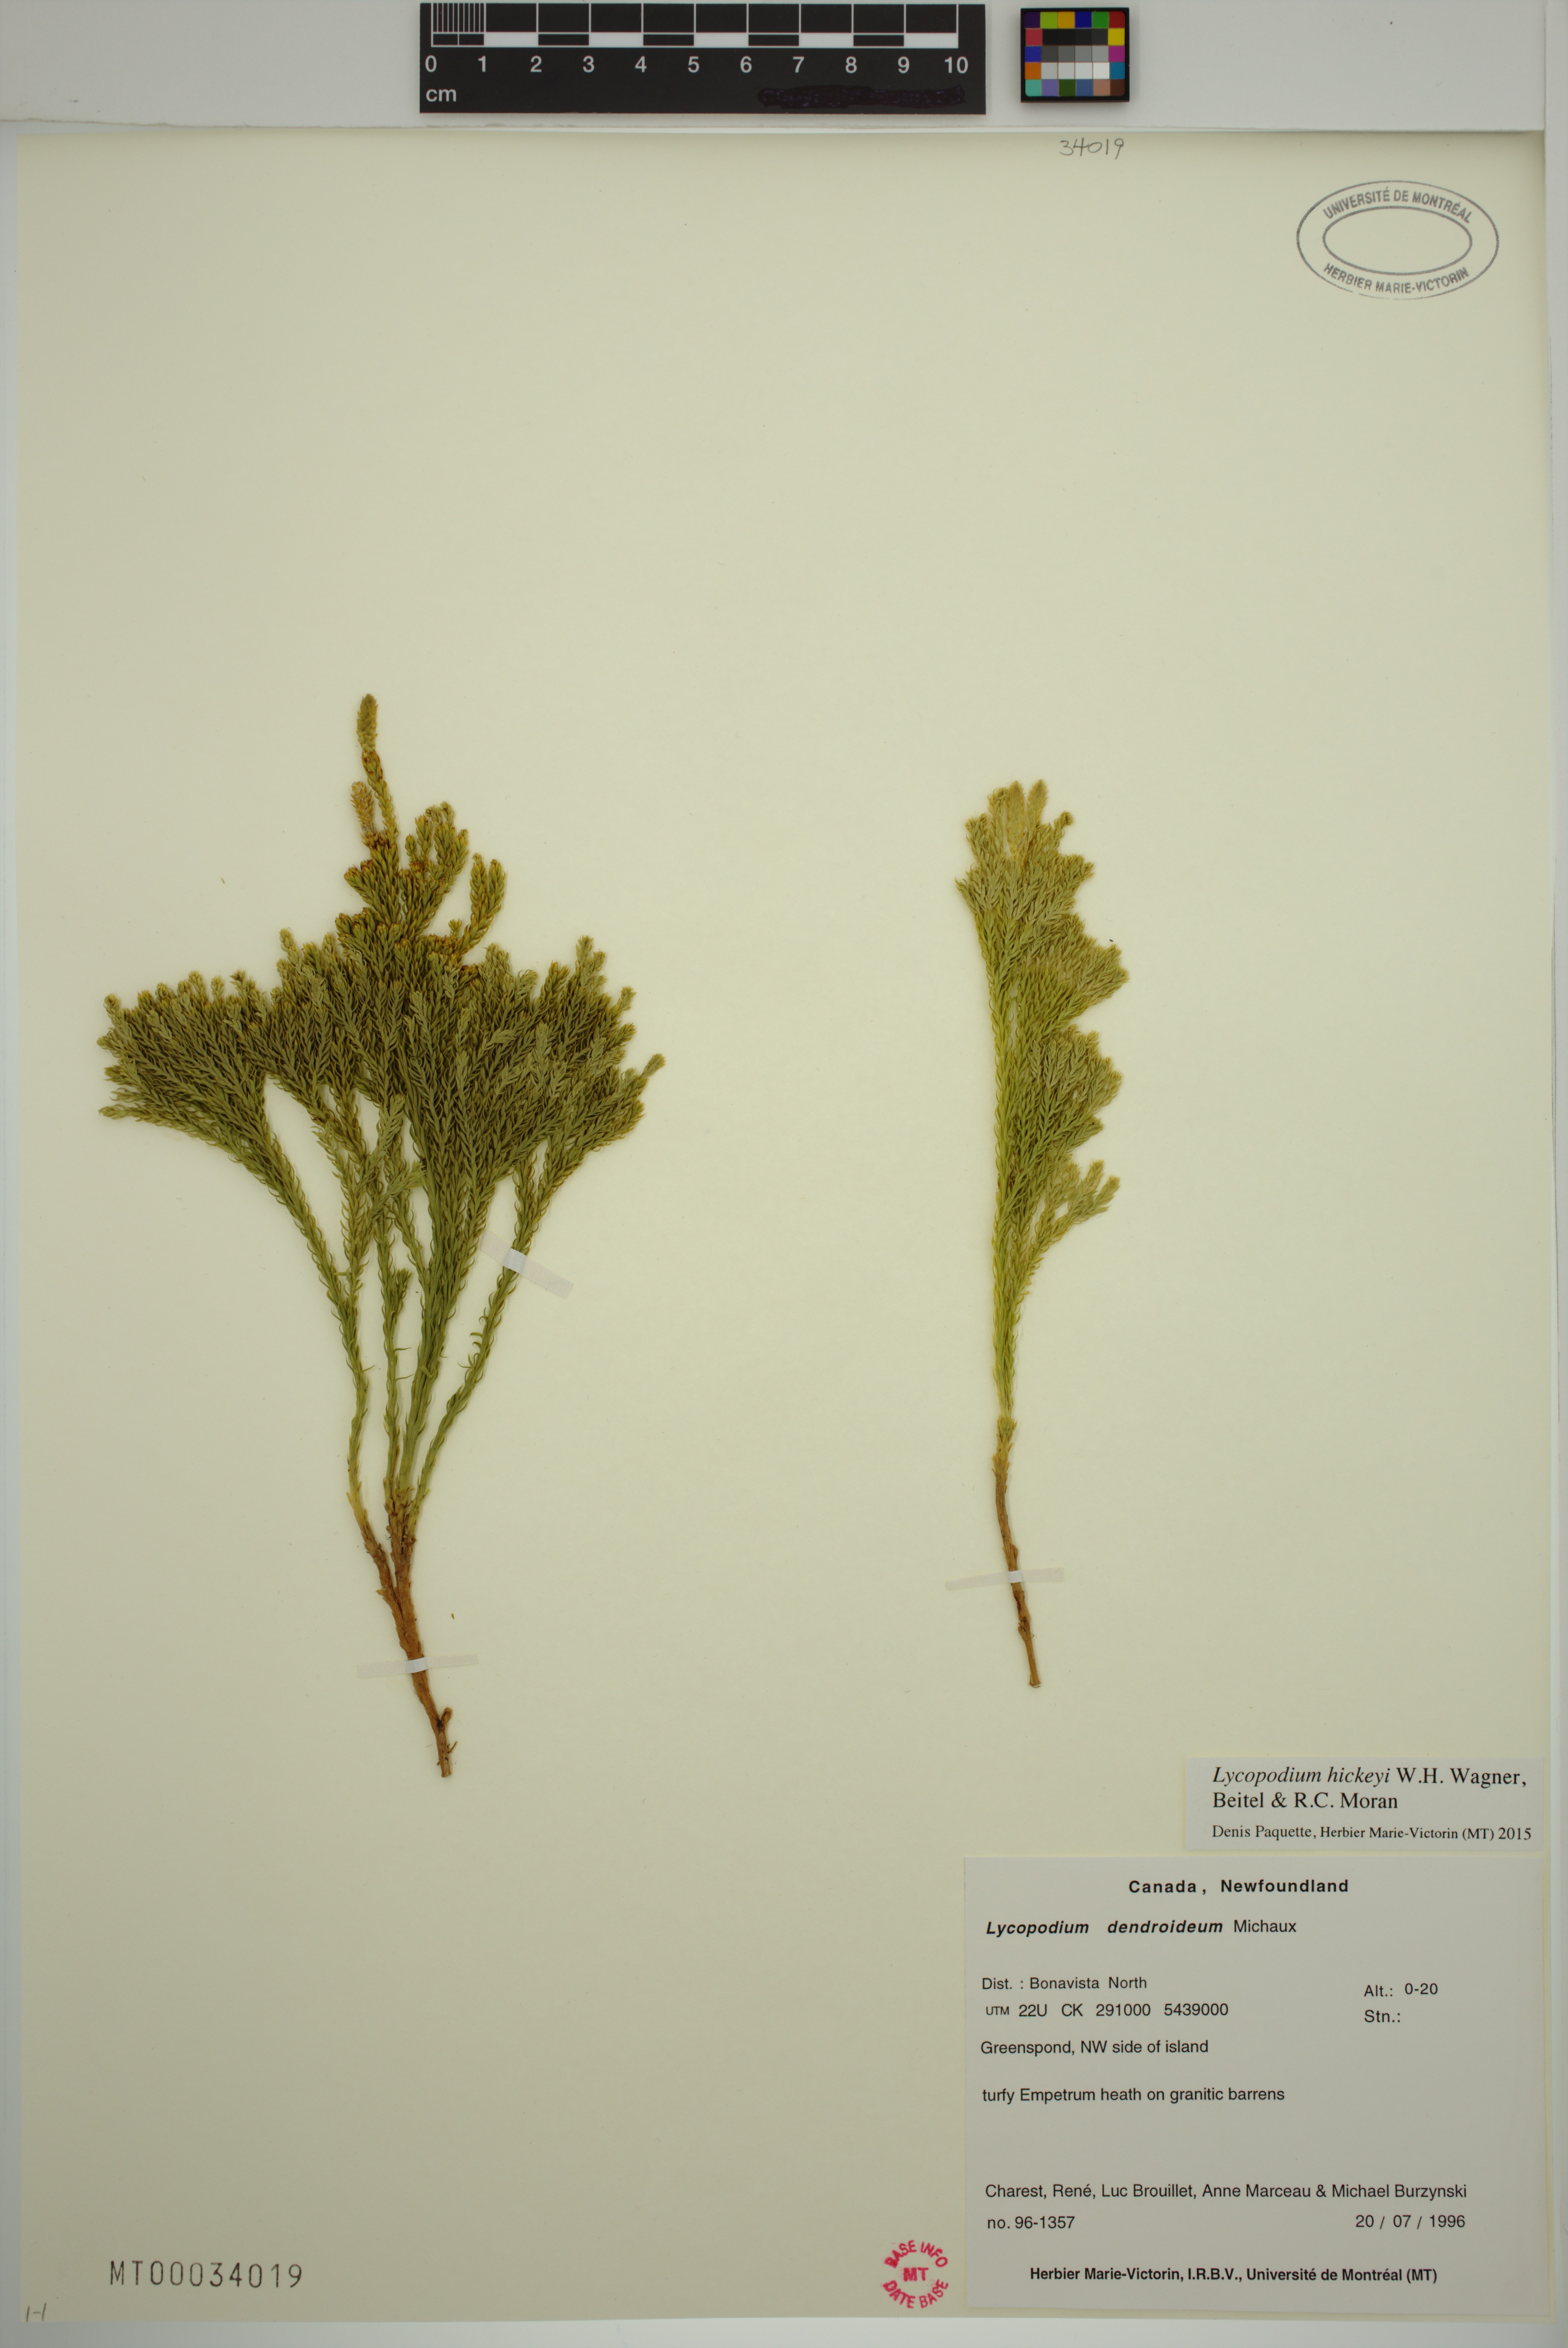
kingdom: Plantae
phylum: Tracheophyta
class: Lycopodiopsida
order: Lycopodiales
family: Lycopodiaceae
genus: Dendrolycopodium
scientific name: Dendrolycopodium hickeyi
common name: Hickey's clubmoss
